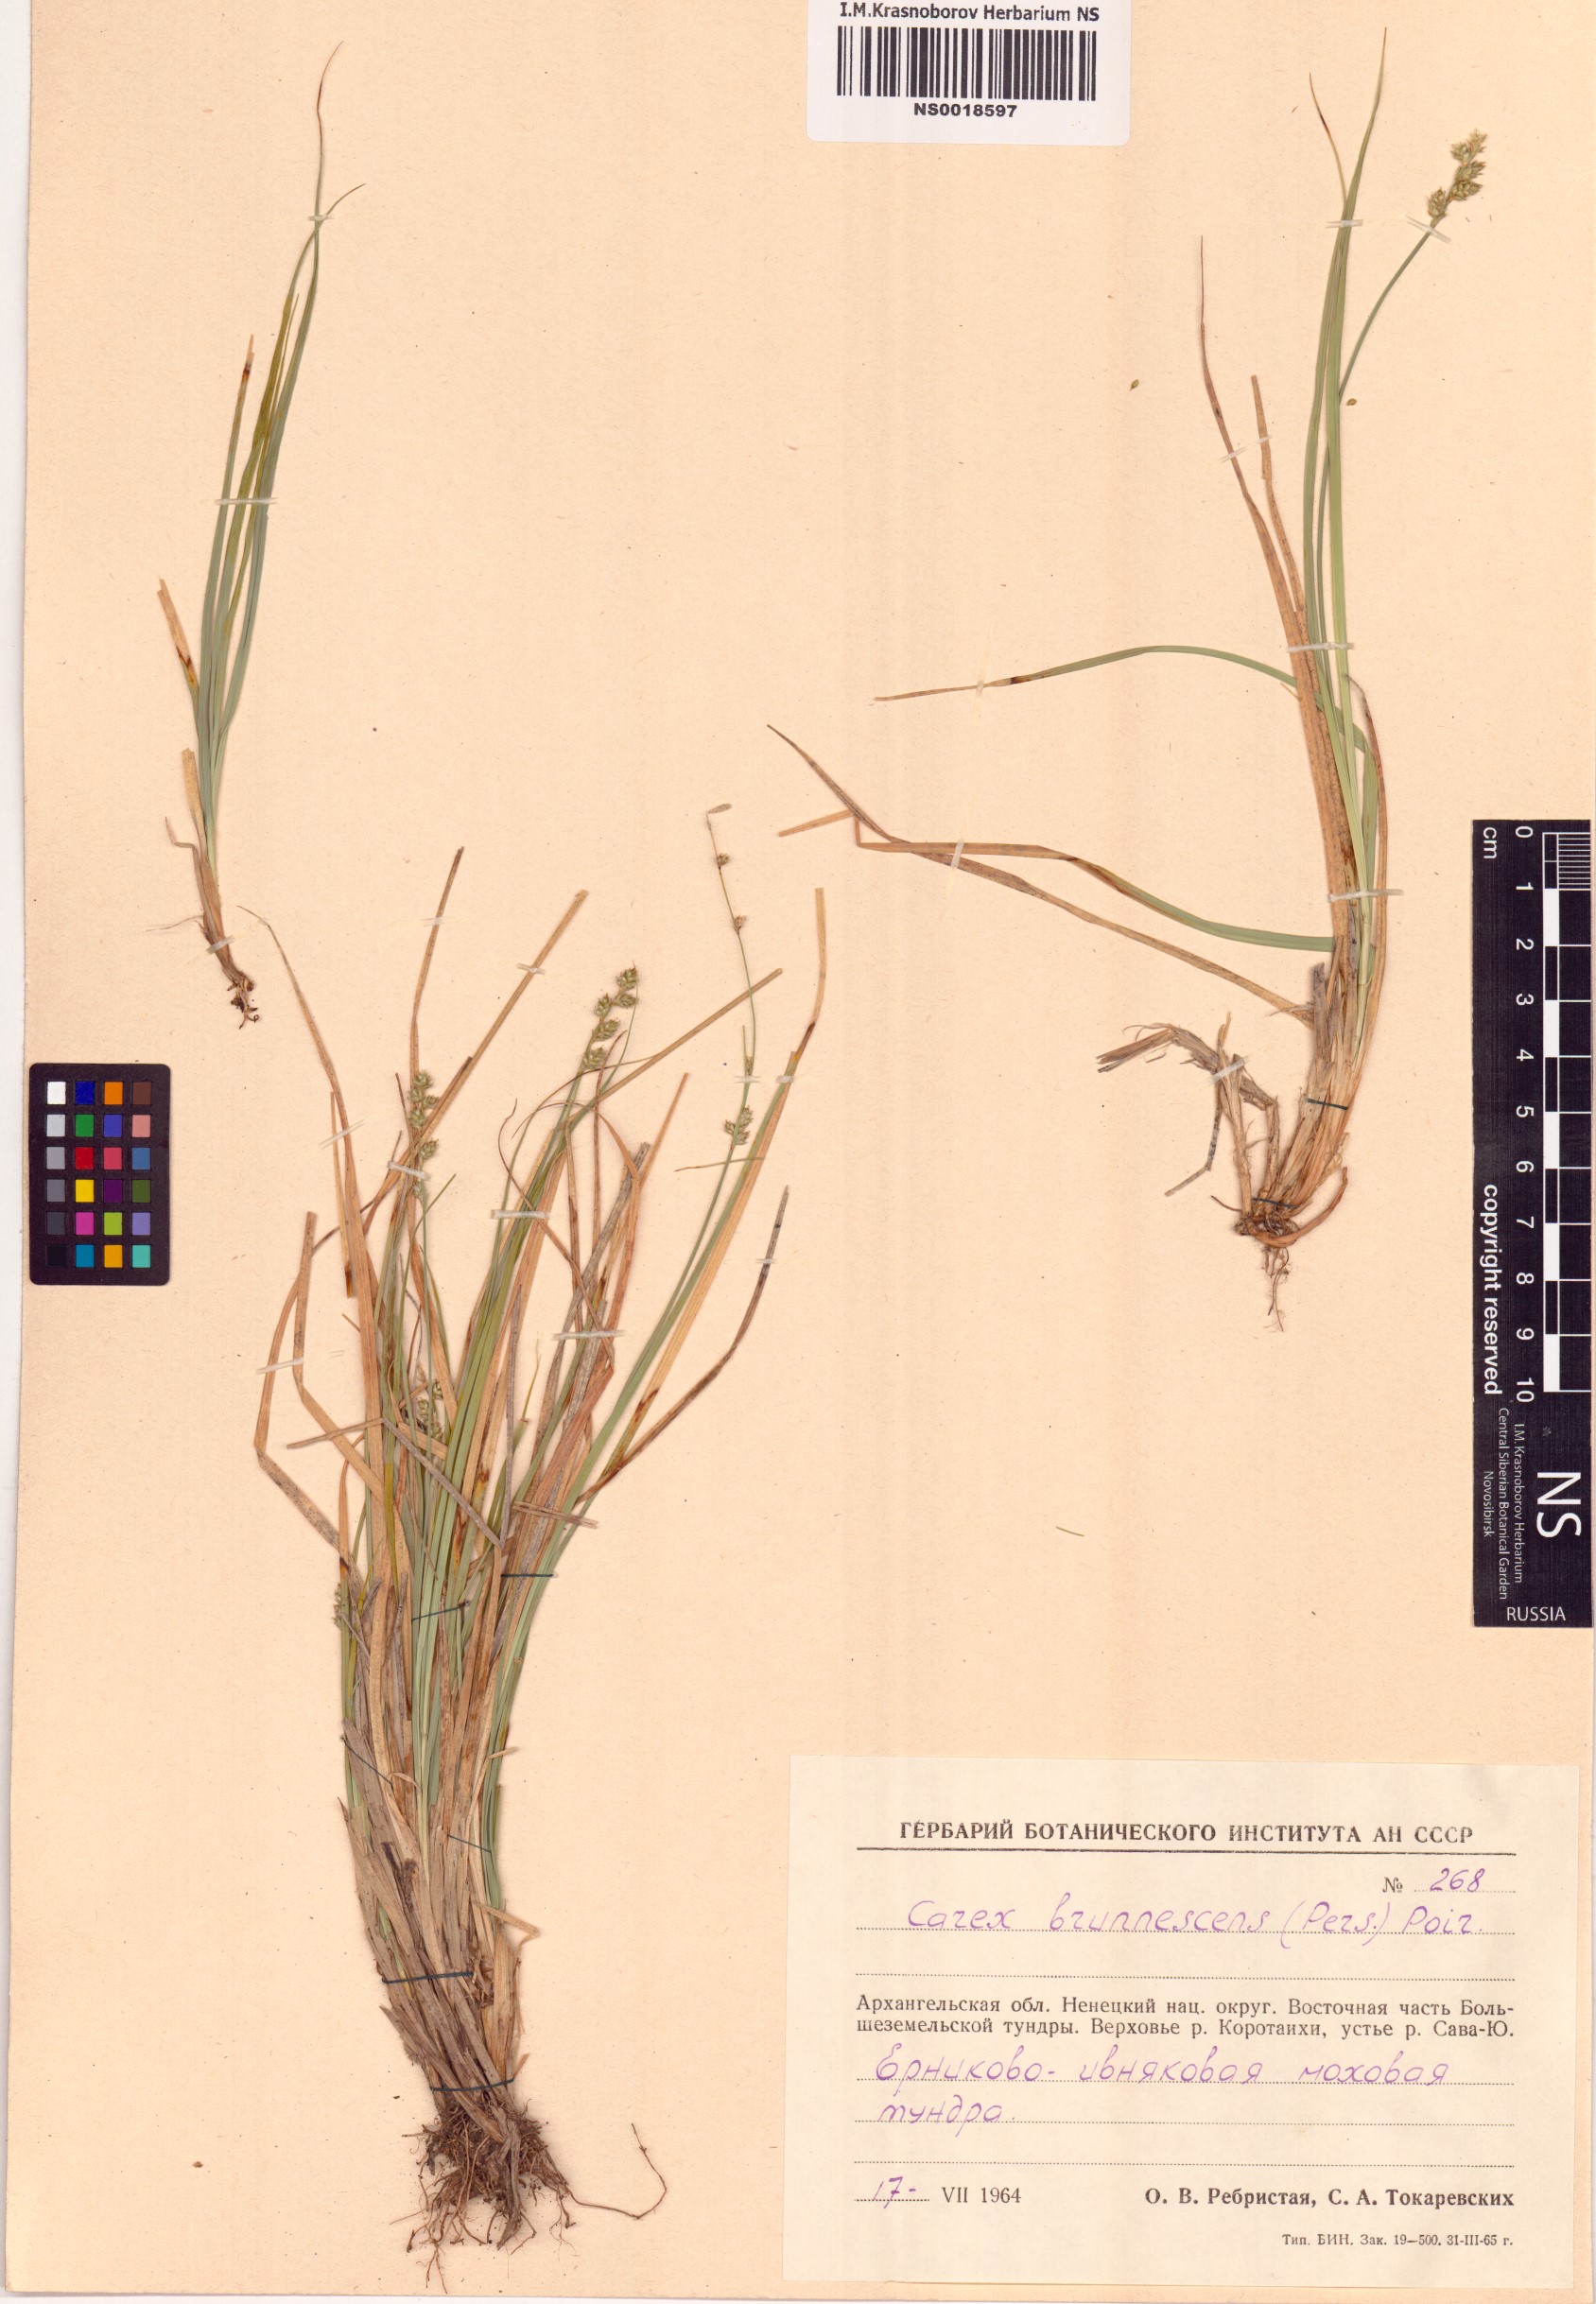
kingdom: Plantae
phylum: Tracheophyta
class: Liliopsida
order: Poales
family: Cyperaceae
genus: Carex
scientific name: Carex brunnescens
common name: Brown sedge
